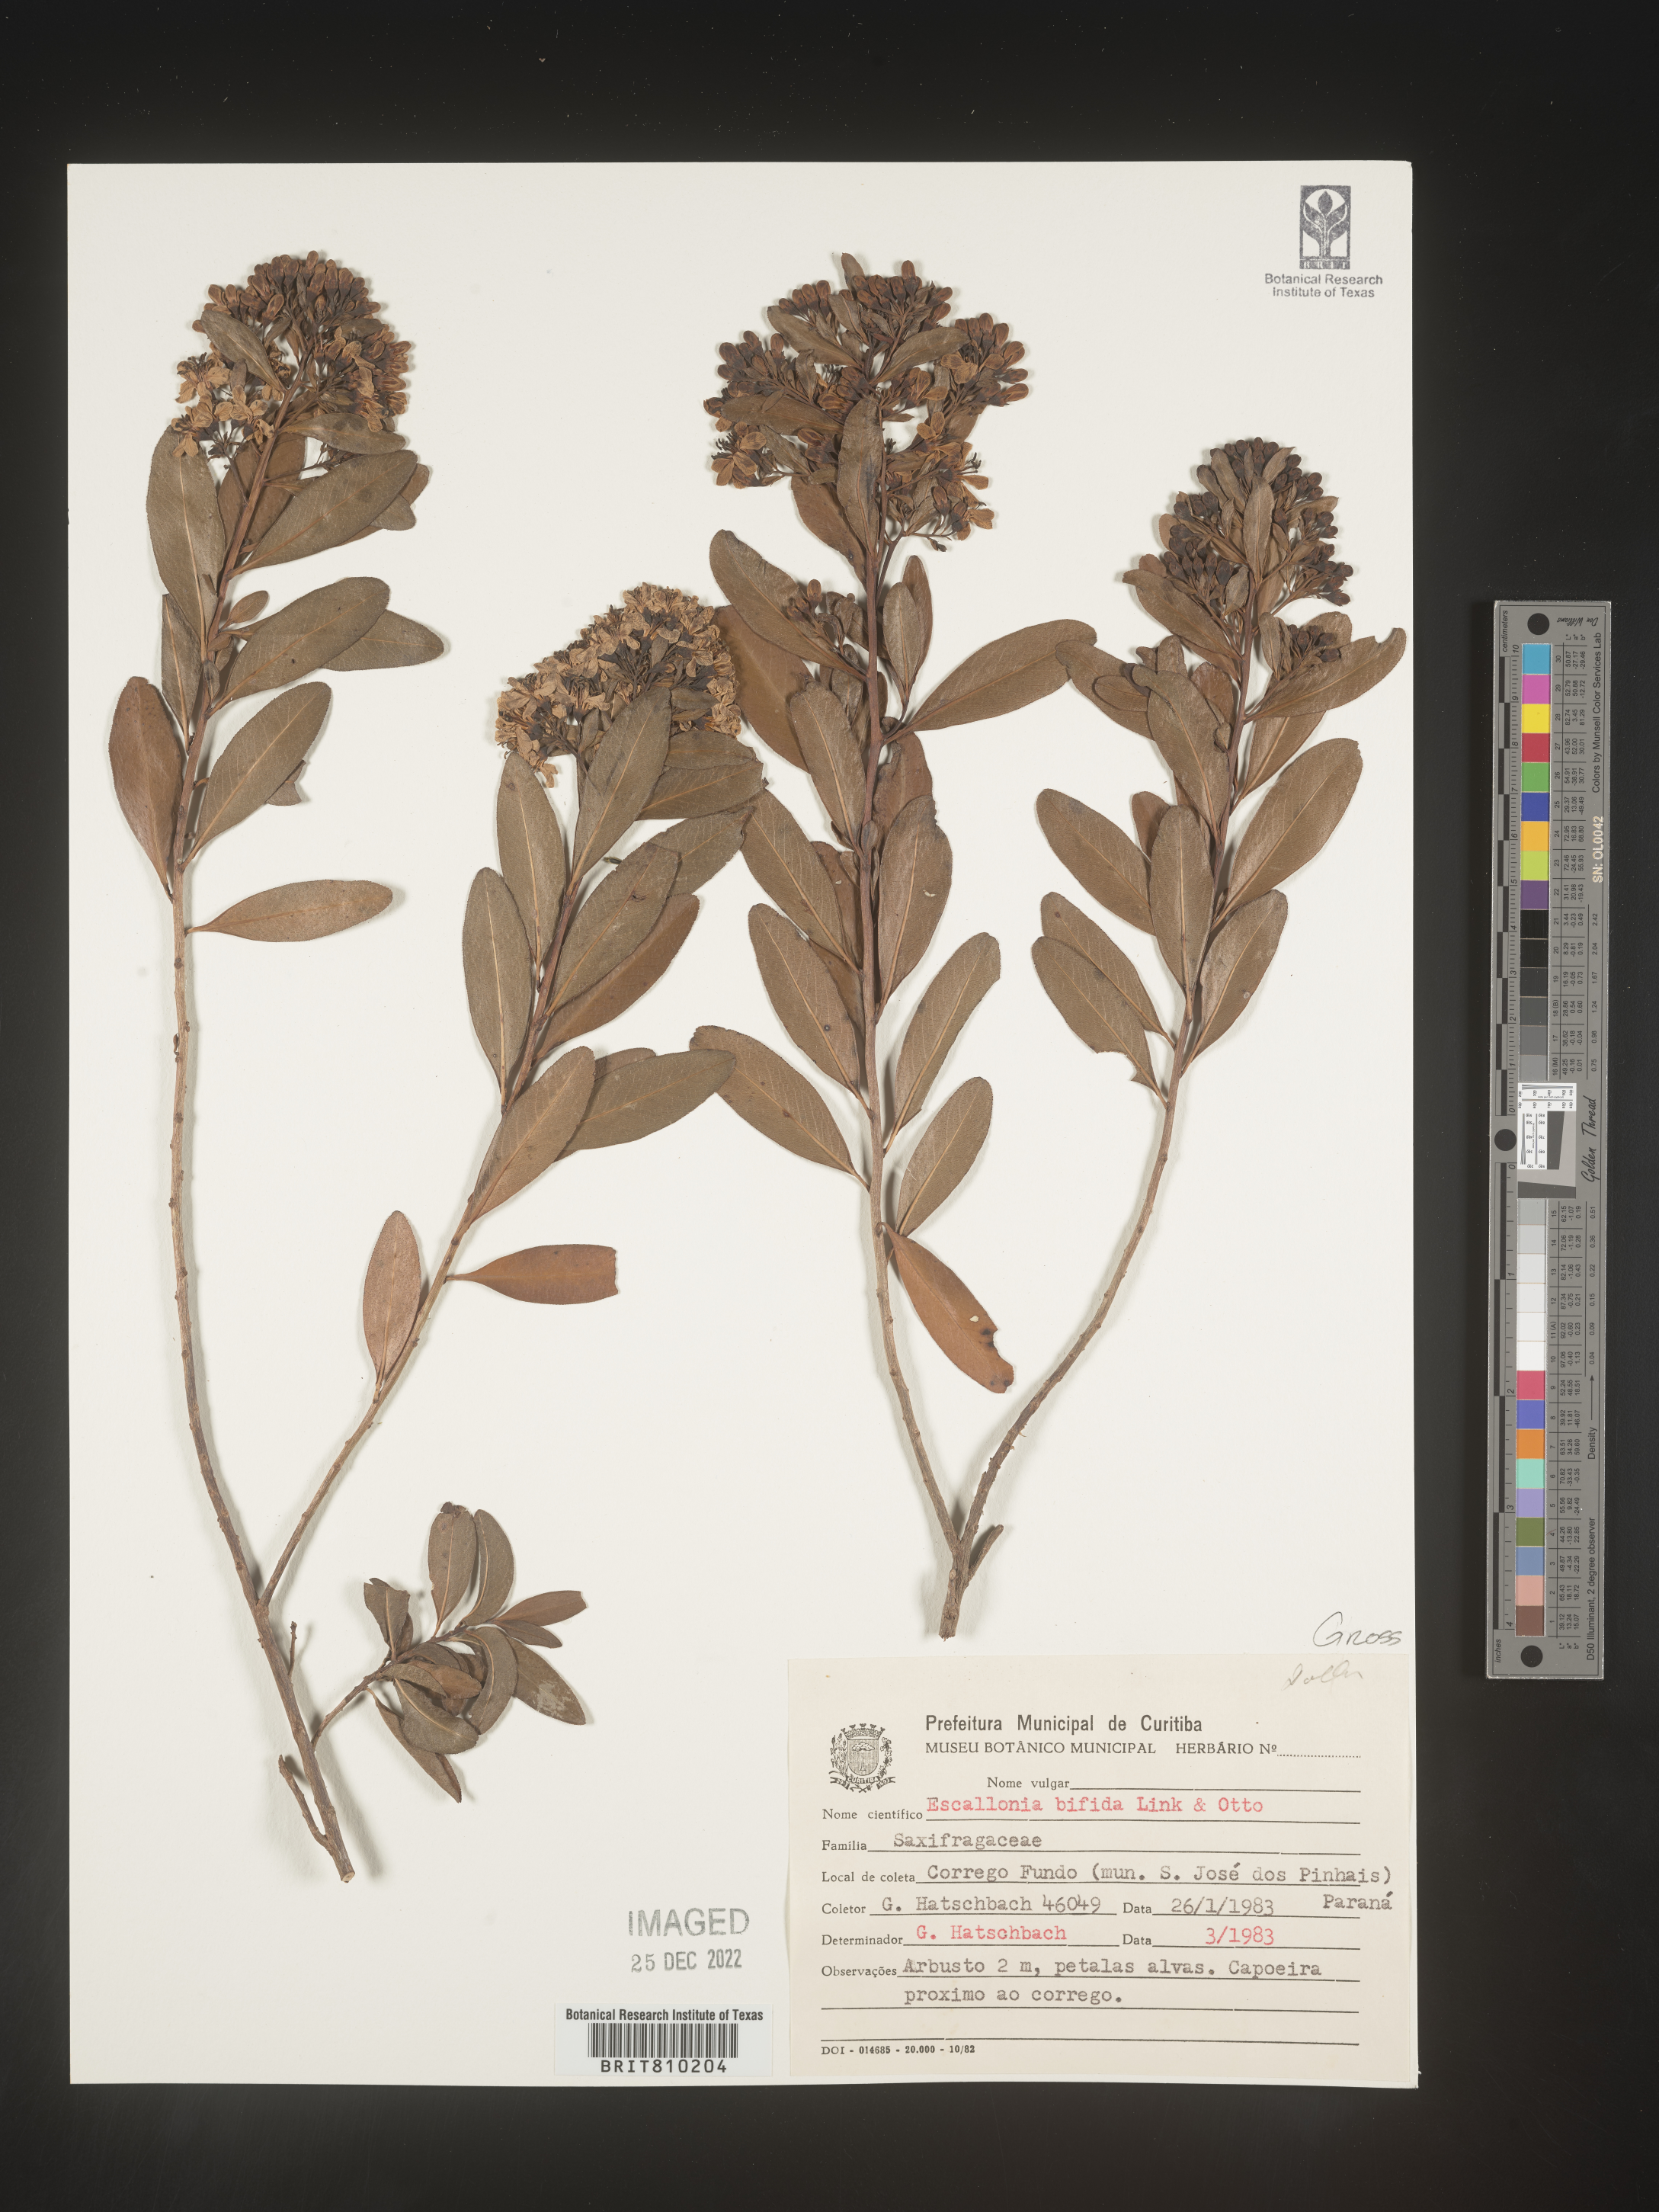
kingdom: Plantae
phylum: Tracheophyta
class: Magnoliopsida
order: Escalloniales
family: Escalloniaceae
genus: Escallonia
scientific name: Escallonia
